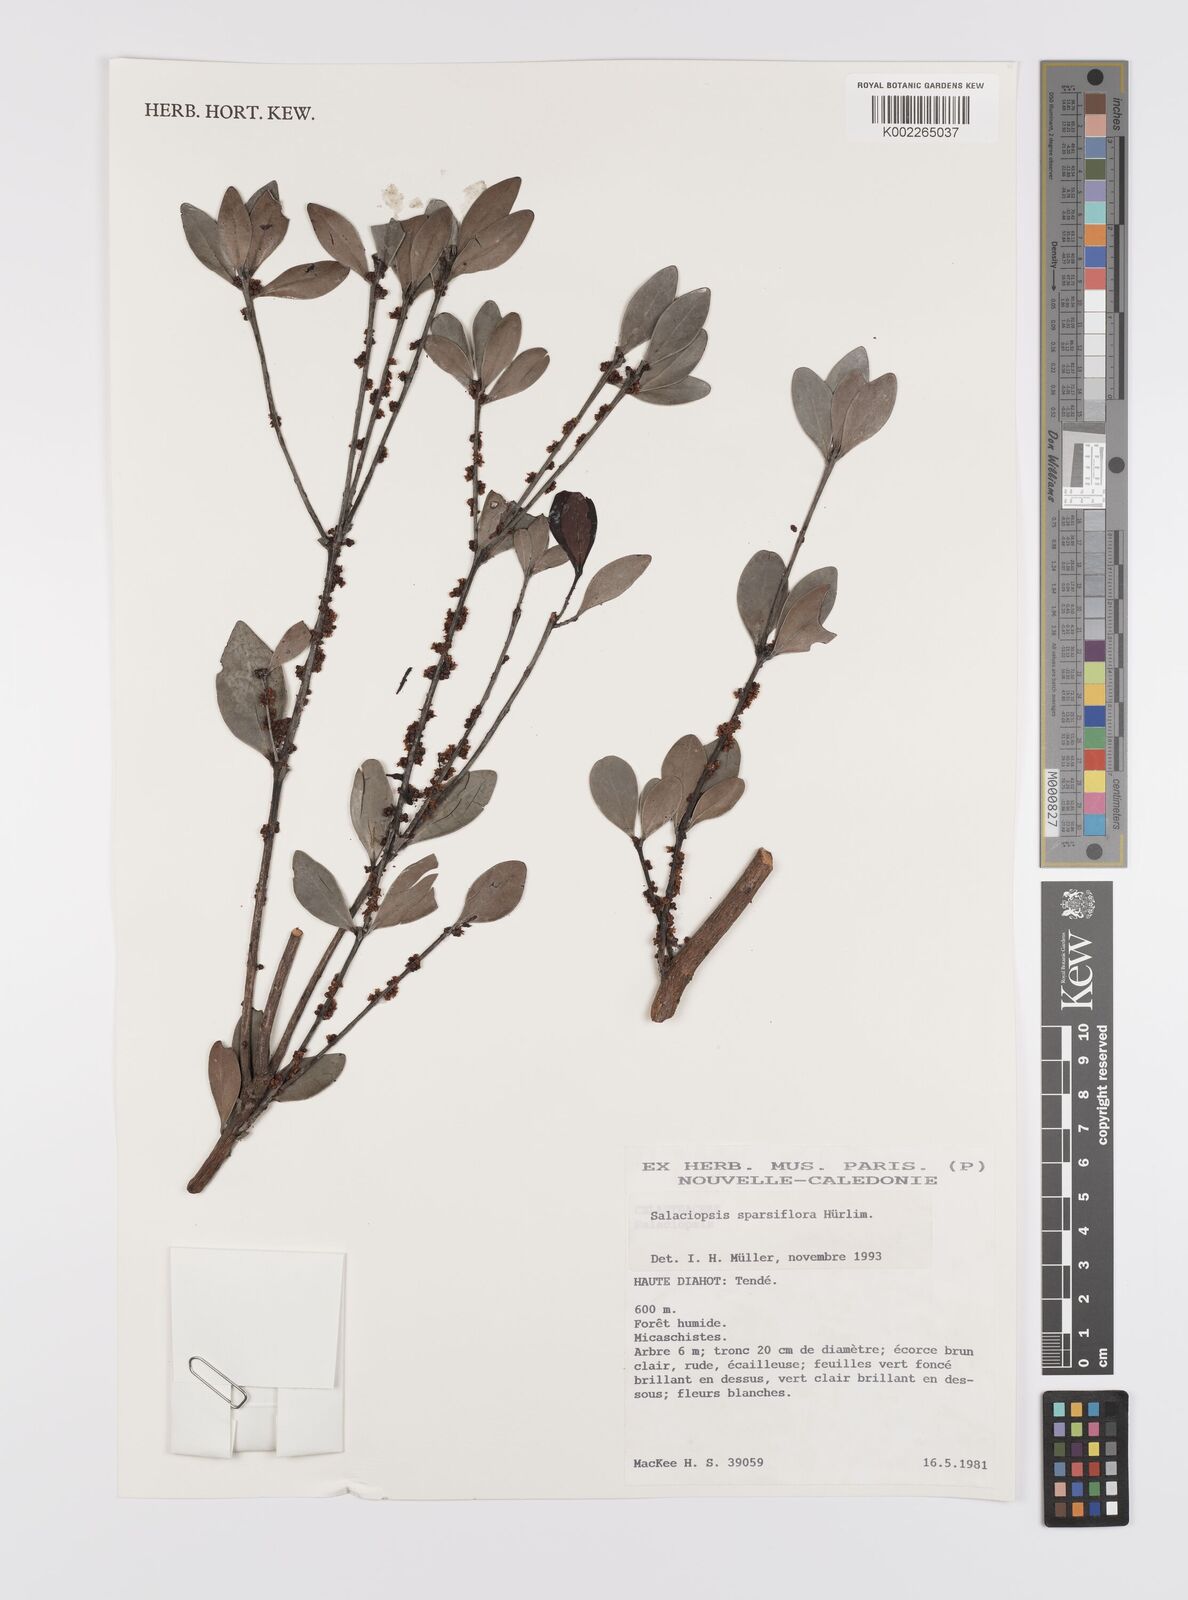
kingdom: Plantae
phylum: Tracheophyta
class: Magnoliopsida
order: Celastrales
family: Celastraceae
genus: Salaciopsis
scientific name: Salaciopsis sparsiflora
